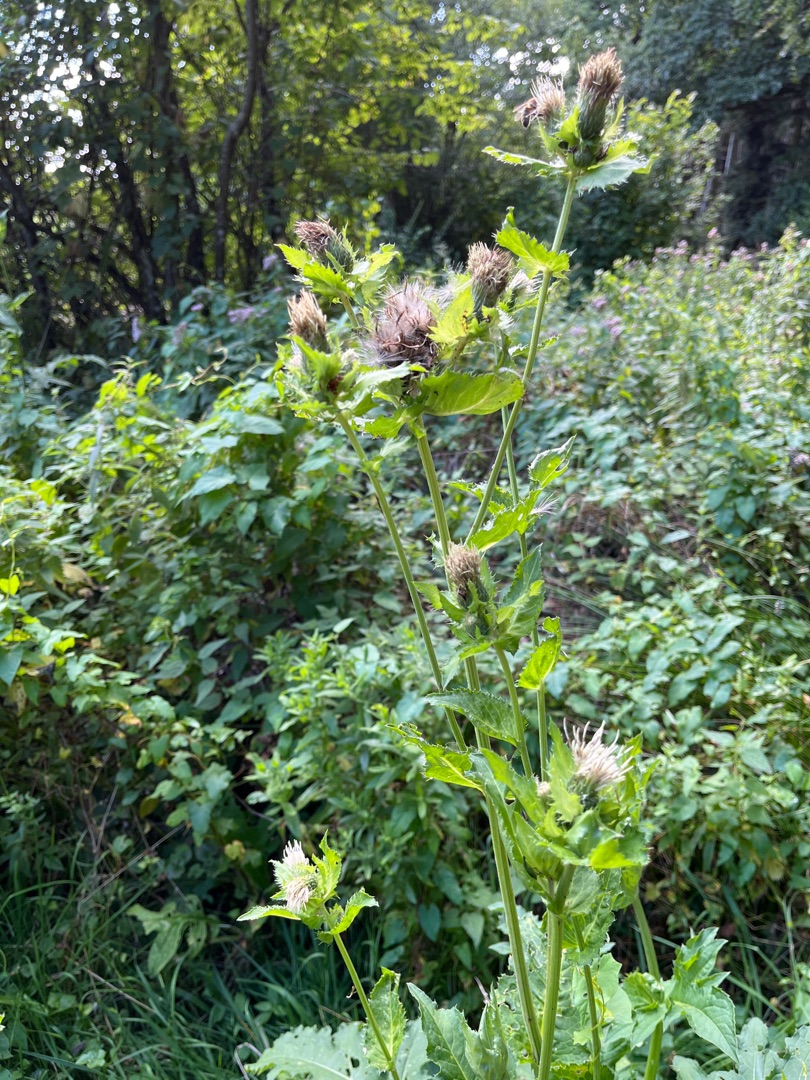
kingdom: Plantae
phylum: Tracheophyta
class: Magnoliopsida
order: Asterales
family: Asteraceae
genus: Cirsium
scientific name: Cirsium oleraceum
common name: Kål-tidsel
